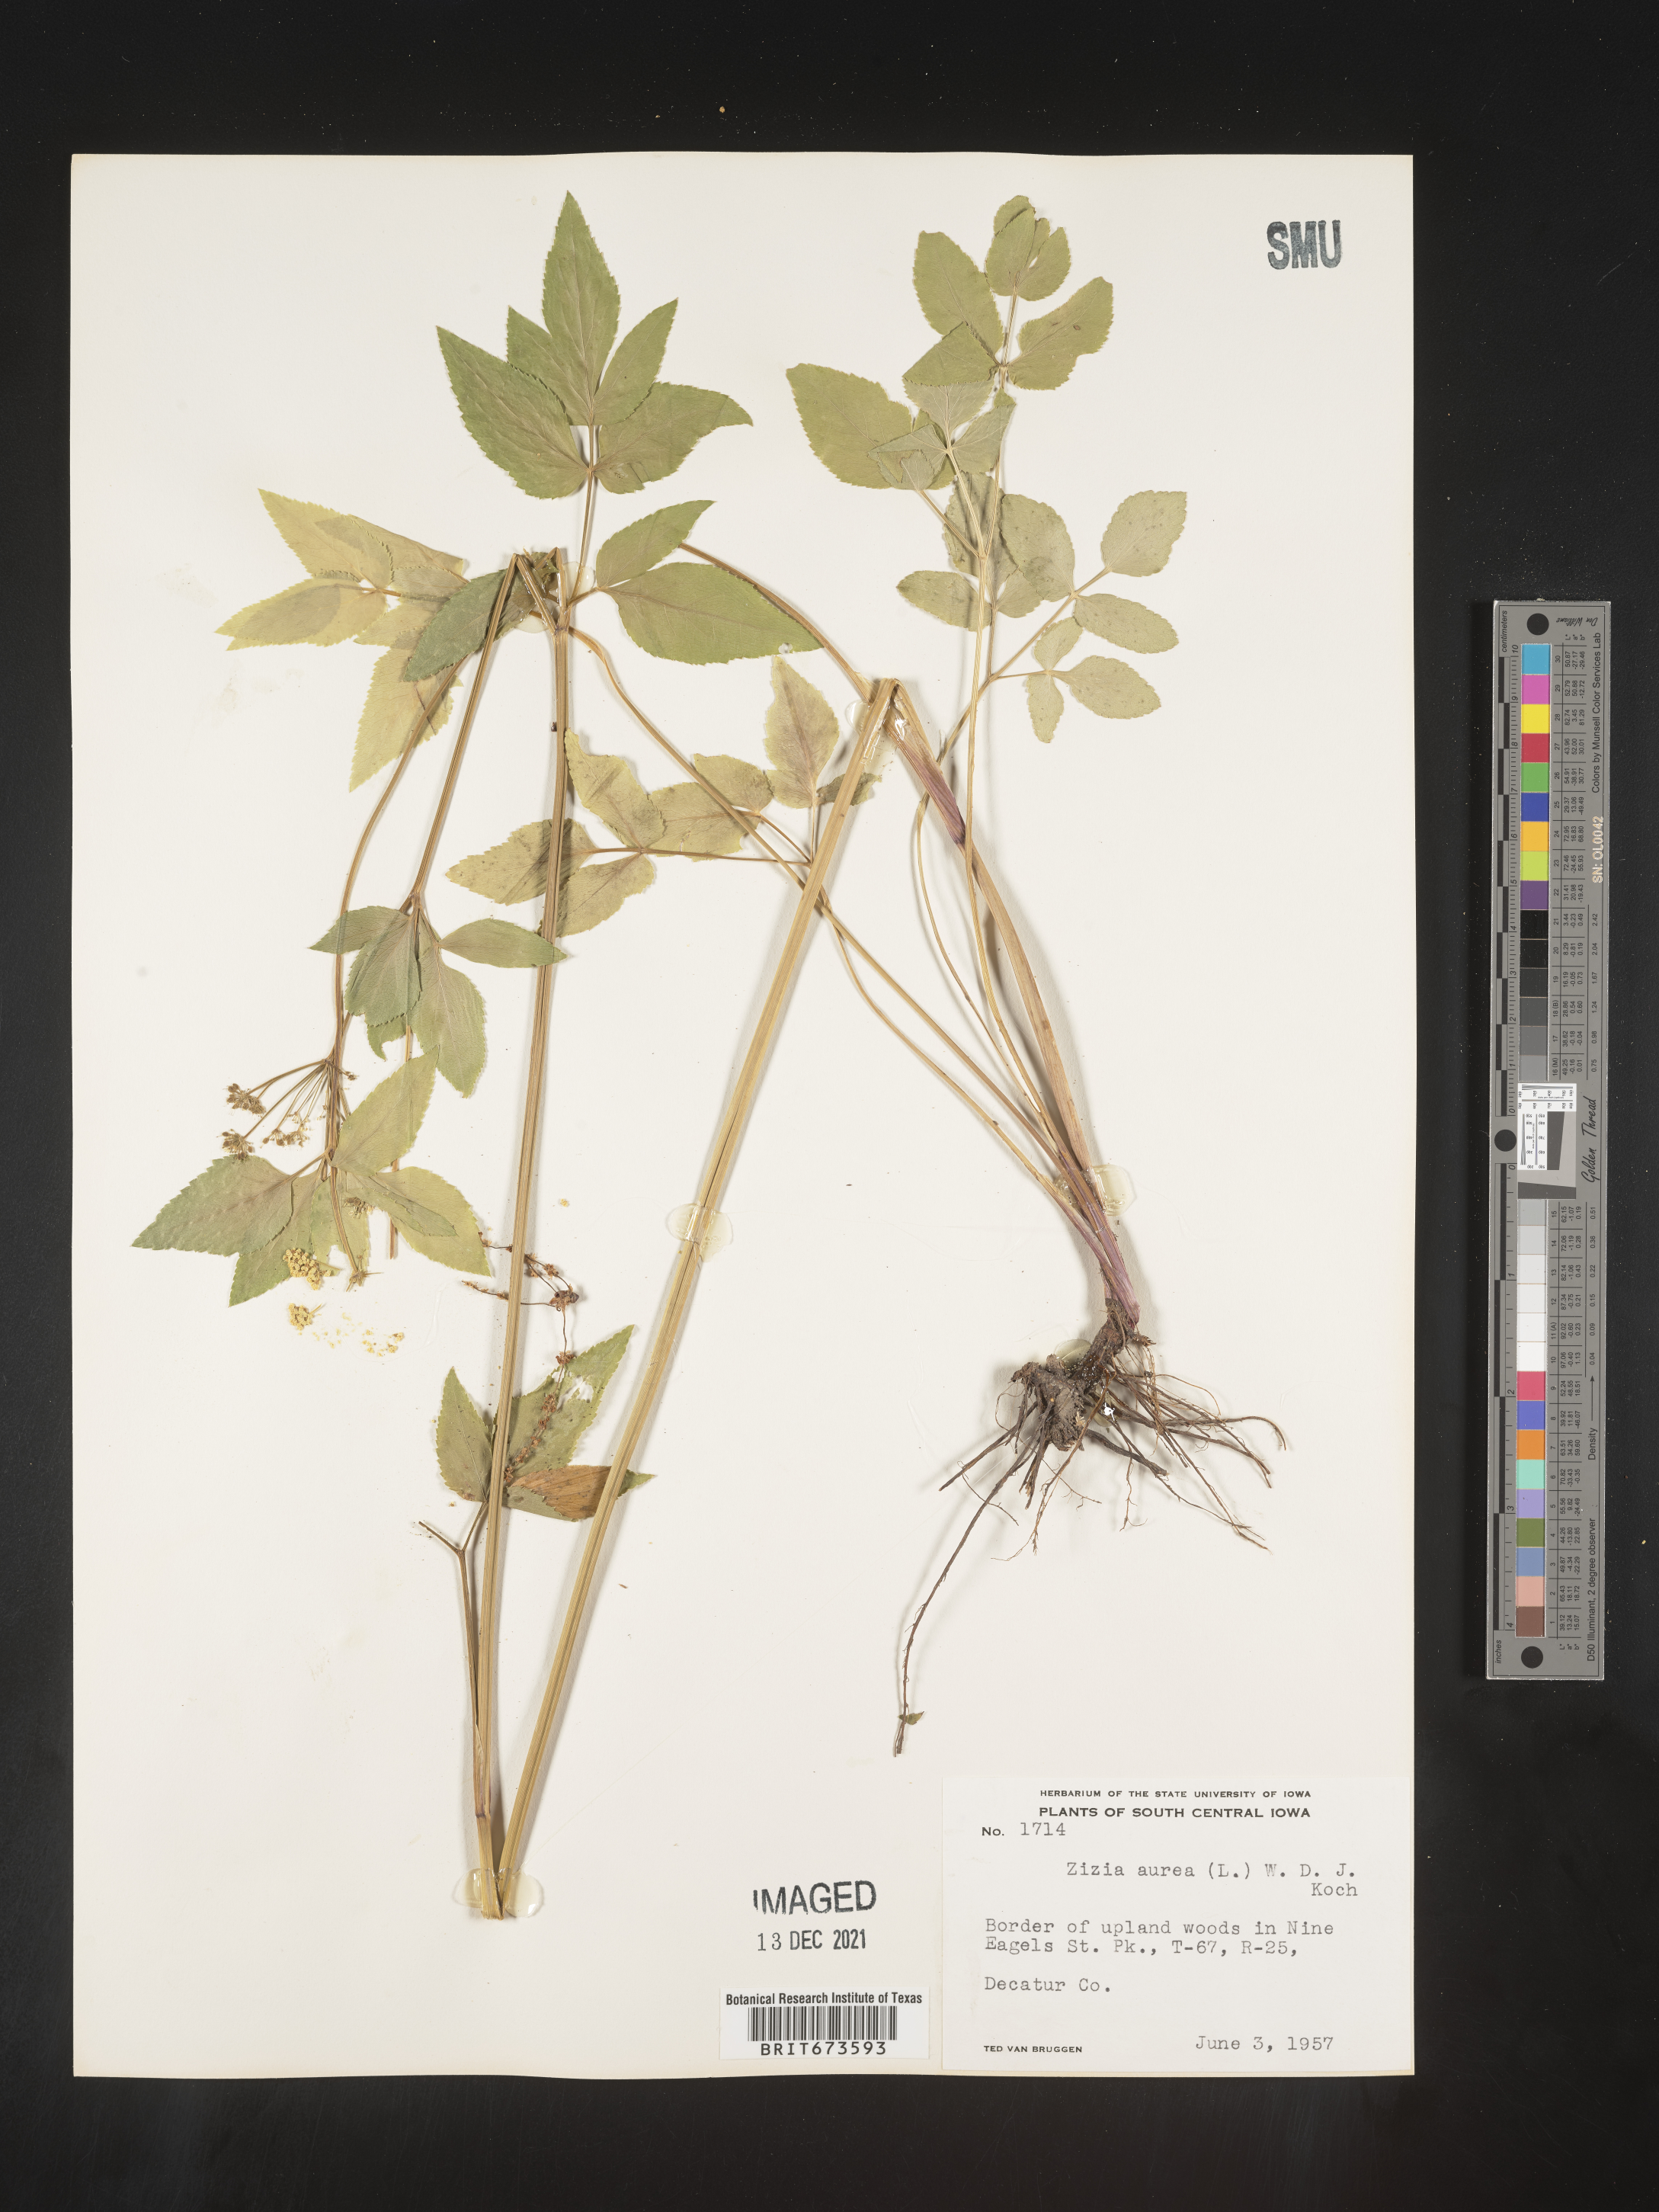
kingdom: Plantae
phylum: Tracheophyta
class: Magnoliopsida
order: Apiales
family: Apiaceae
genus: Zizia
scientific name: Zizia aurea
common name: Golden alexanders
